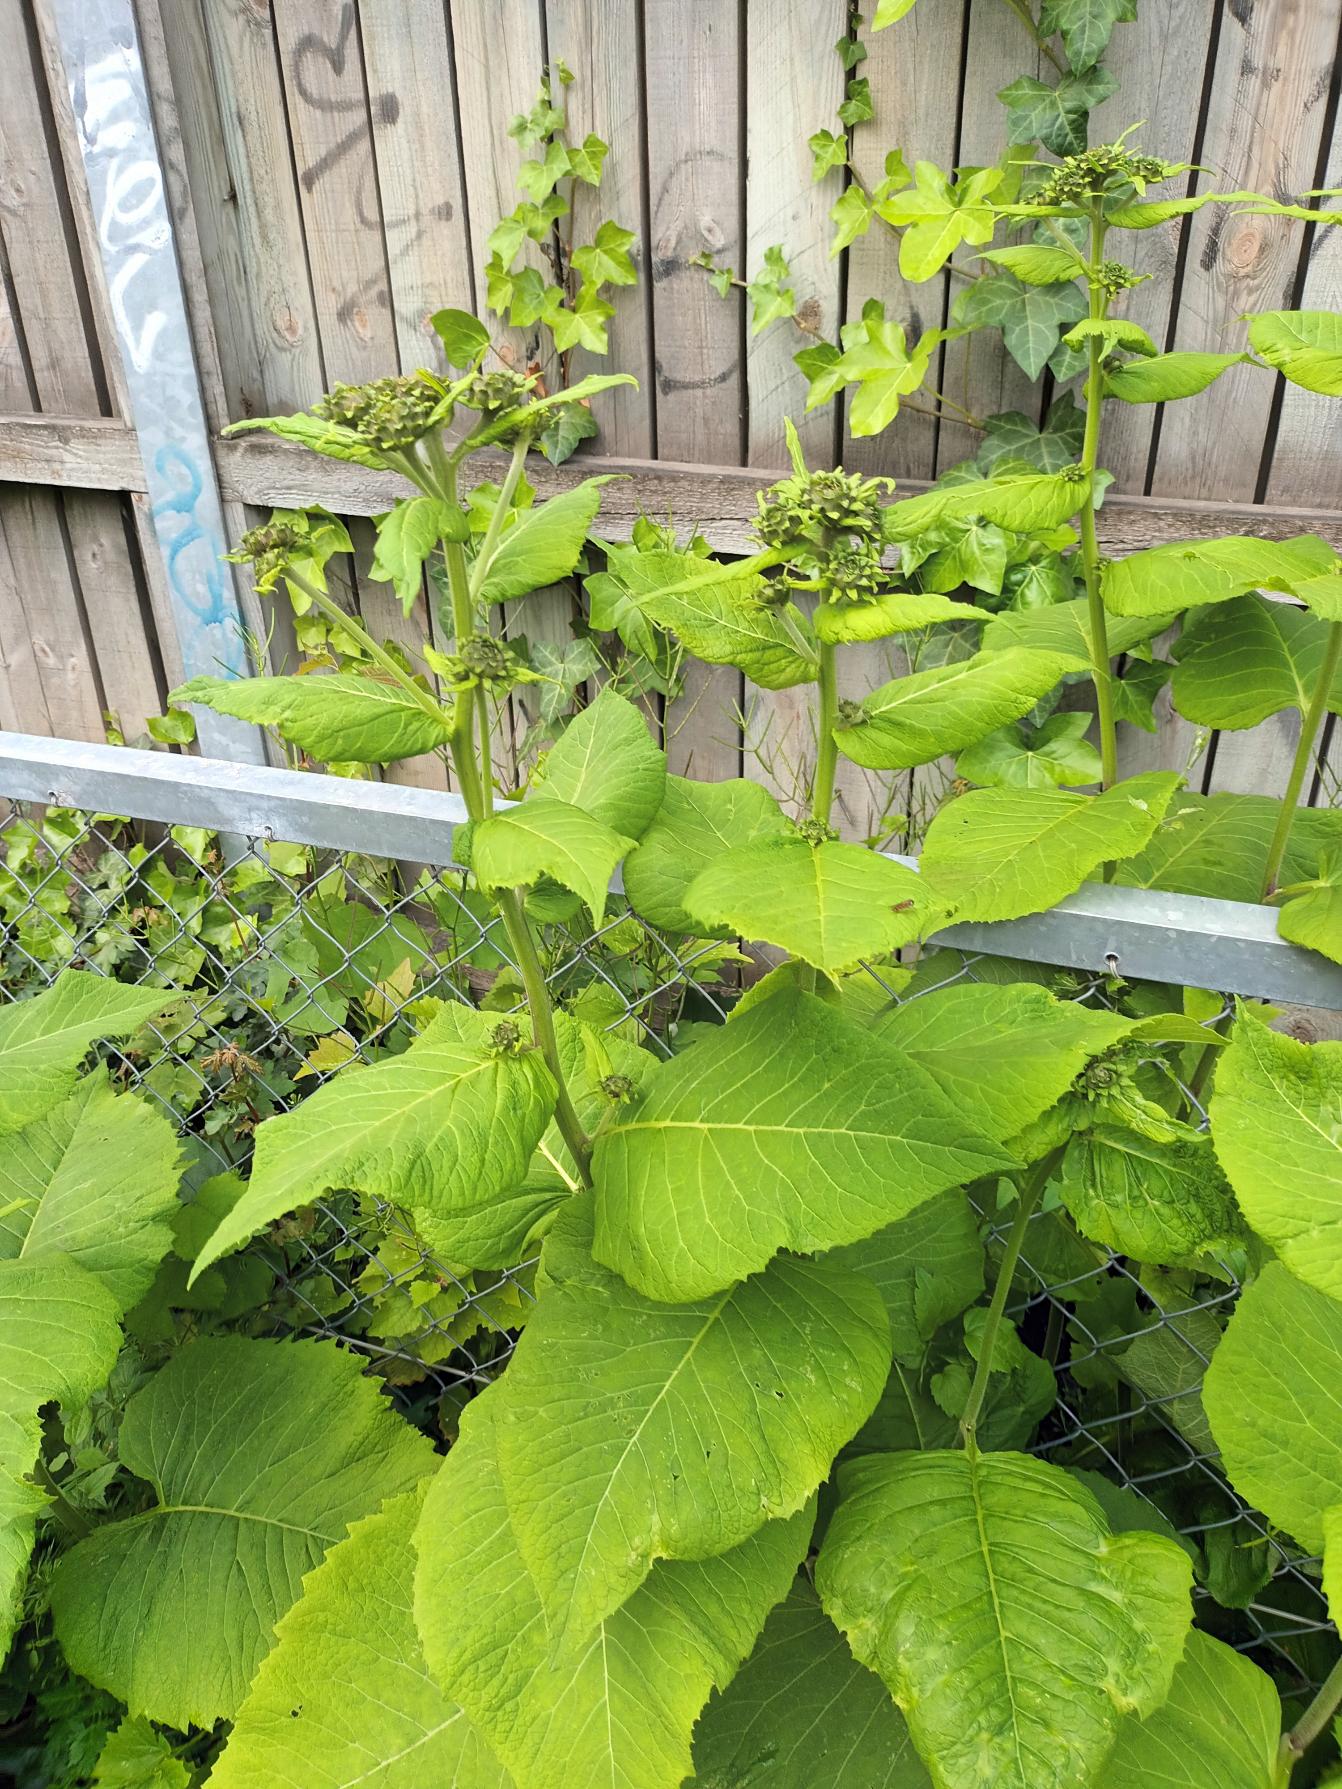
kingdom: Plantae
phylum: Tracheophyta
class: Magnoliopsida
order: Asterales
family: Asteraceae
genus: Telekia
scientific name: Telekia speciosa
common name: Tusindstråle
